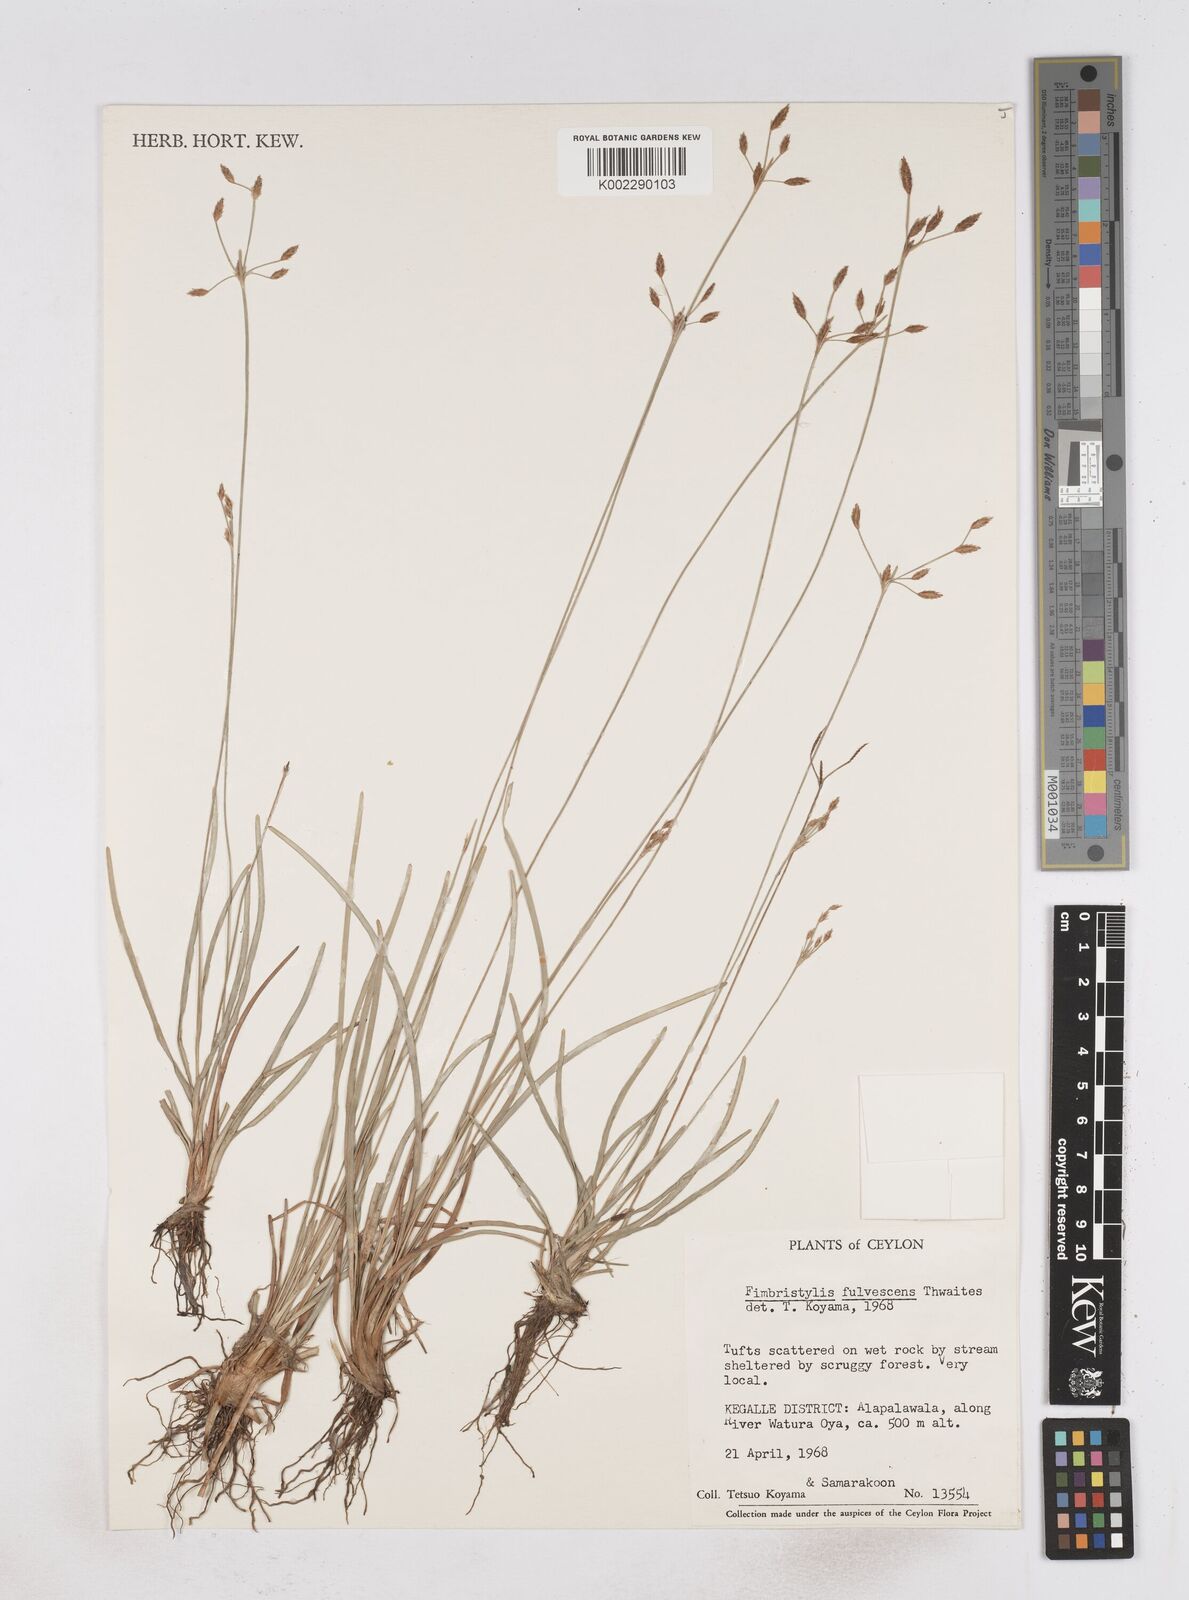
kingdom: Plantae
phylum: Tracheophyta
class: Liliopsida
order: Poales
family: Cyperaceae
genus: Fimbristylis
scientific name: Fimbristylis fulvescens
